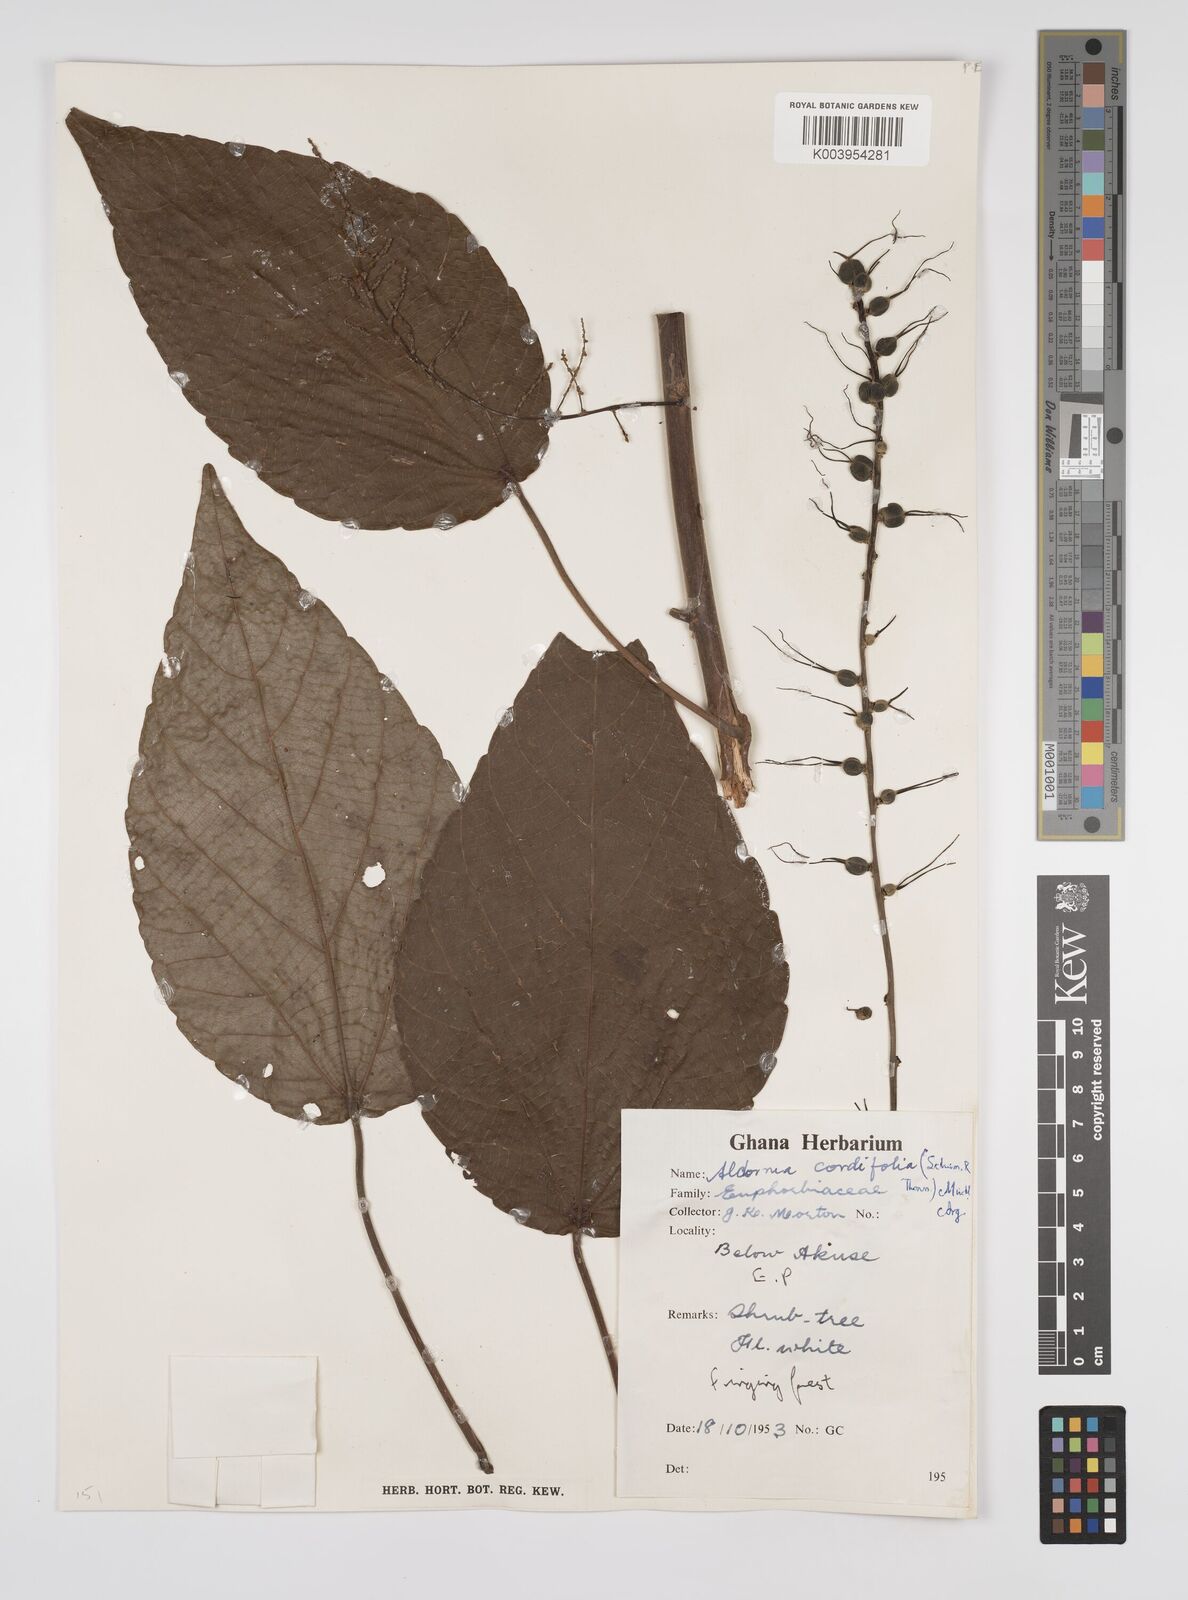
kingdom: Plantae
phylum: Tracheophyta
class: Magnoliopsida
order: Malpighiales
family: Euphorbiaceae
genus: Alchornea
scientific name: Alchornea cordifolia
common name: Christmasbush
